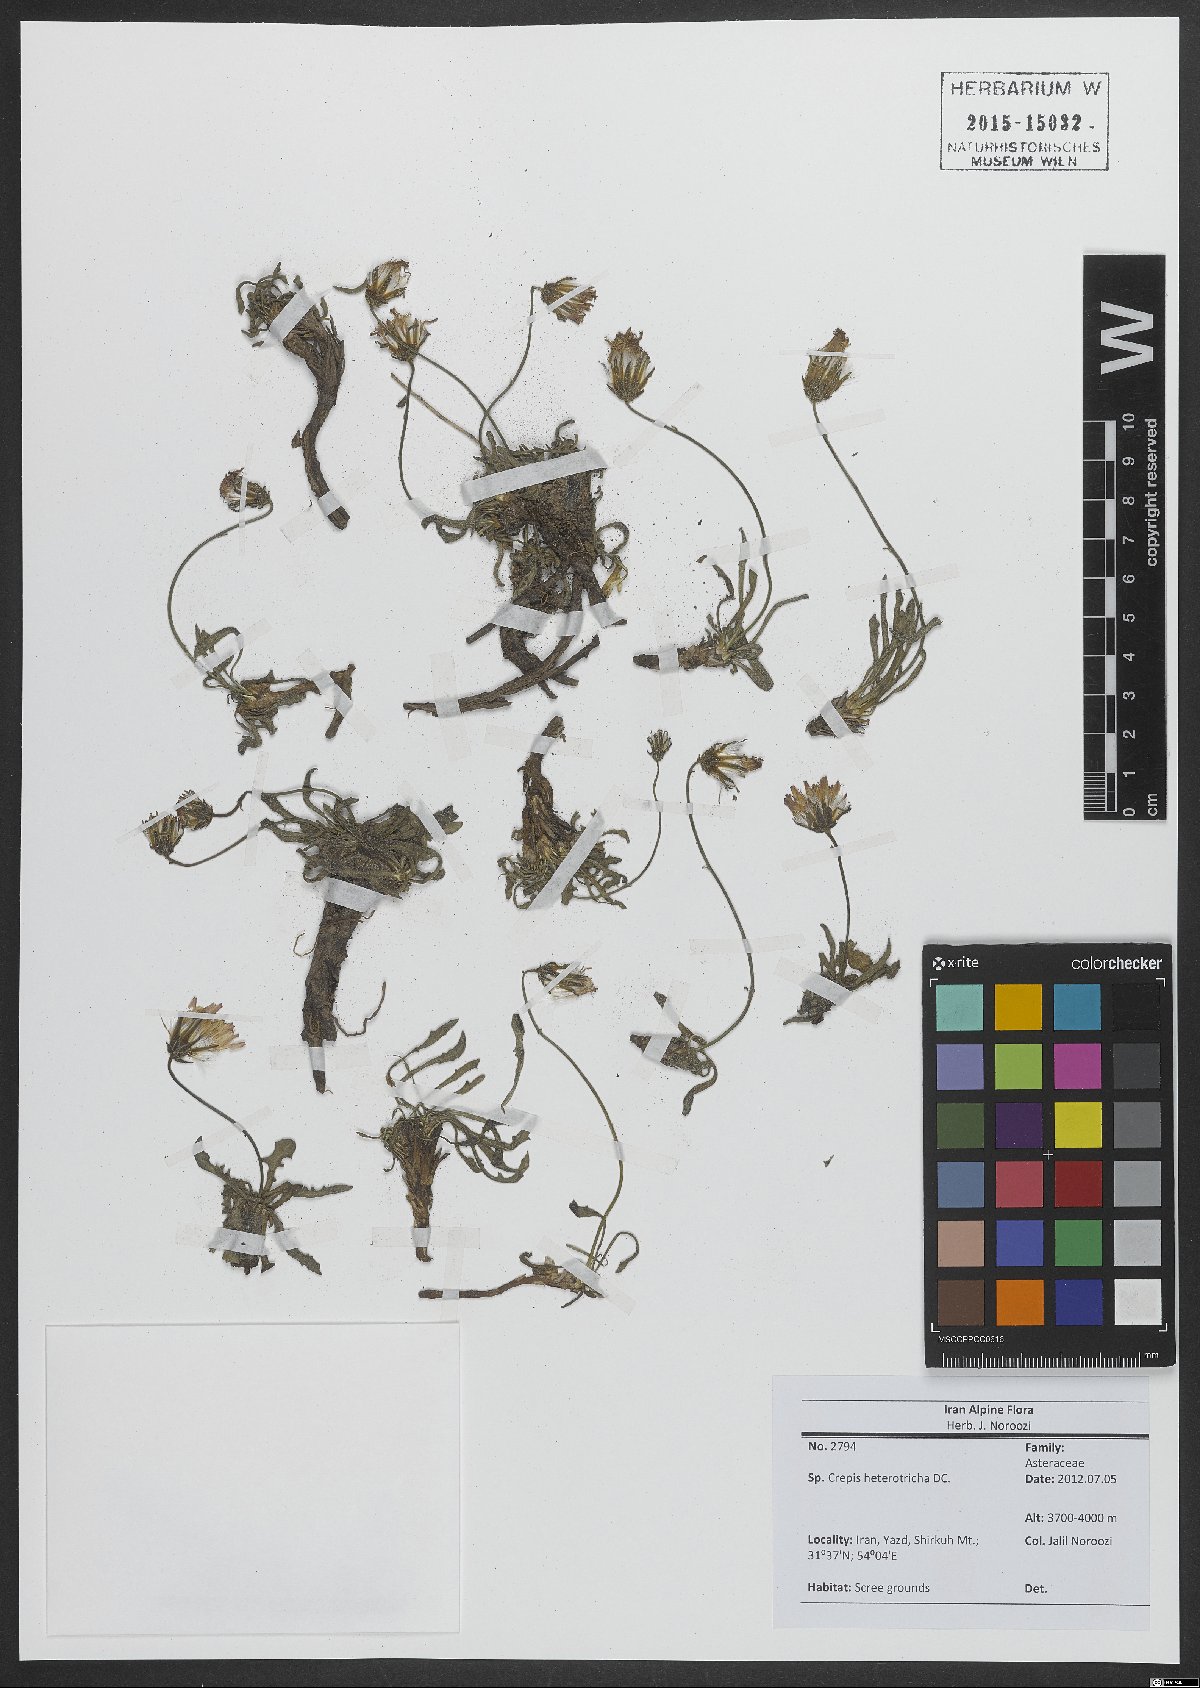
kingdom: Plantae
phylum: Tracheophyta
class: Magnoliopsida
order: Asterales
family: Asteraceae
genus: Crepis
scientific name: Crepis heterotricha
